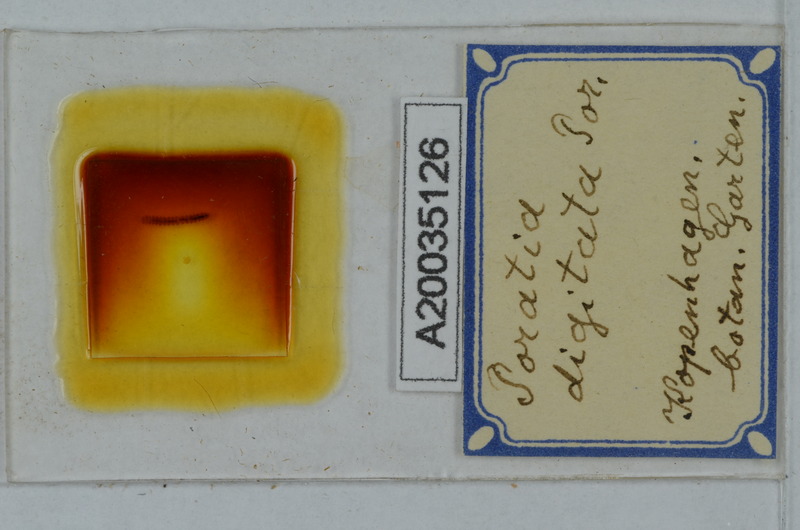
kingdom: Animalia
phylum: Arthropoda
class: Diplopoda
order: Polydesmida
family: Pyrgodesmidae
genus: Poratia
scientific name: Poratia digitata
